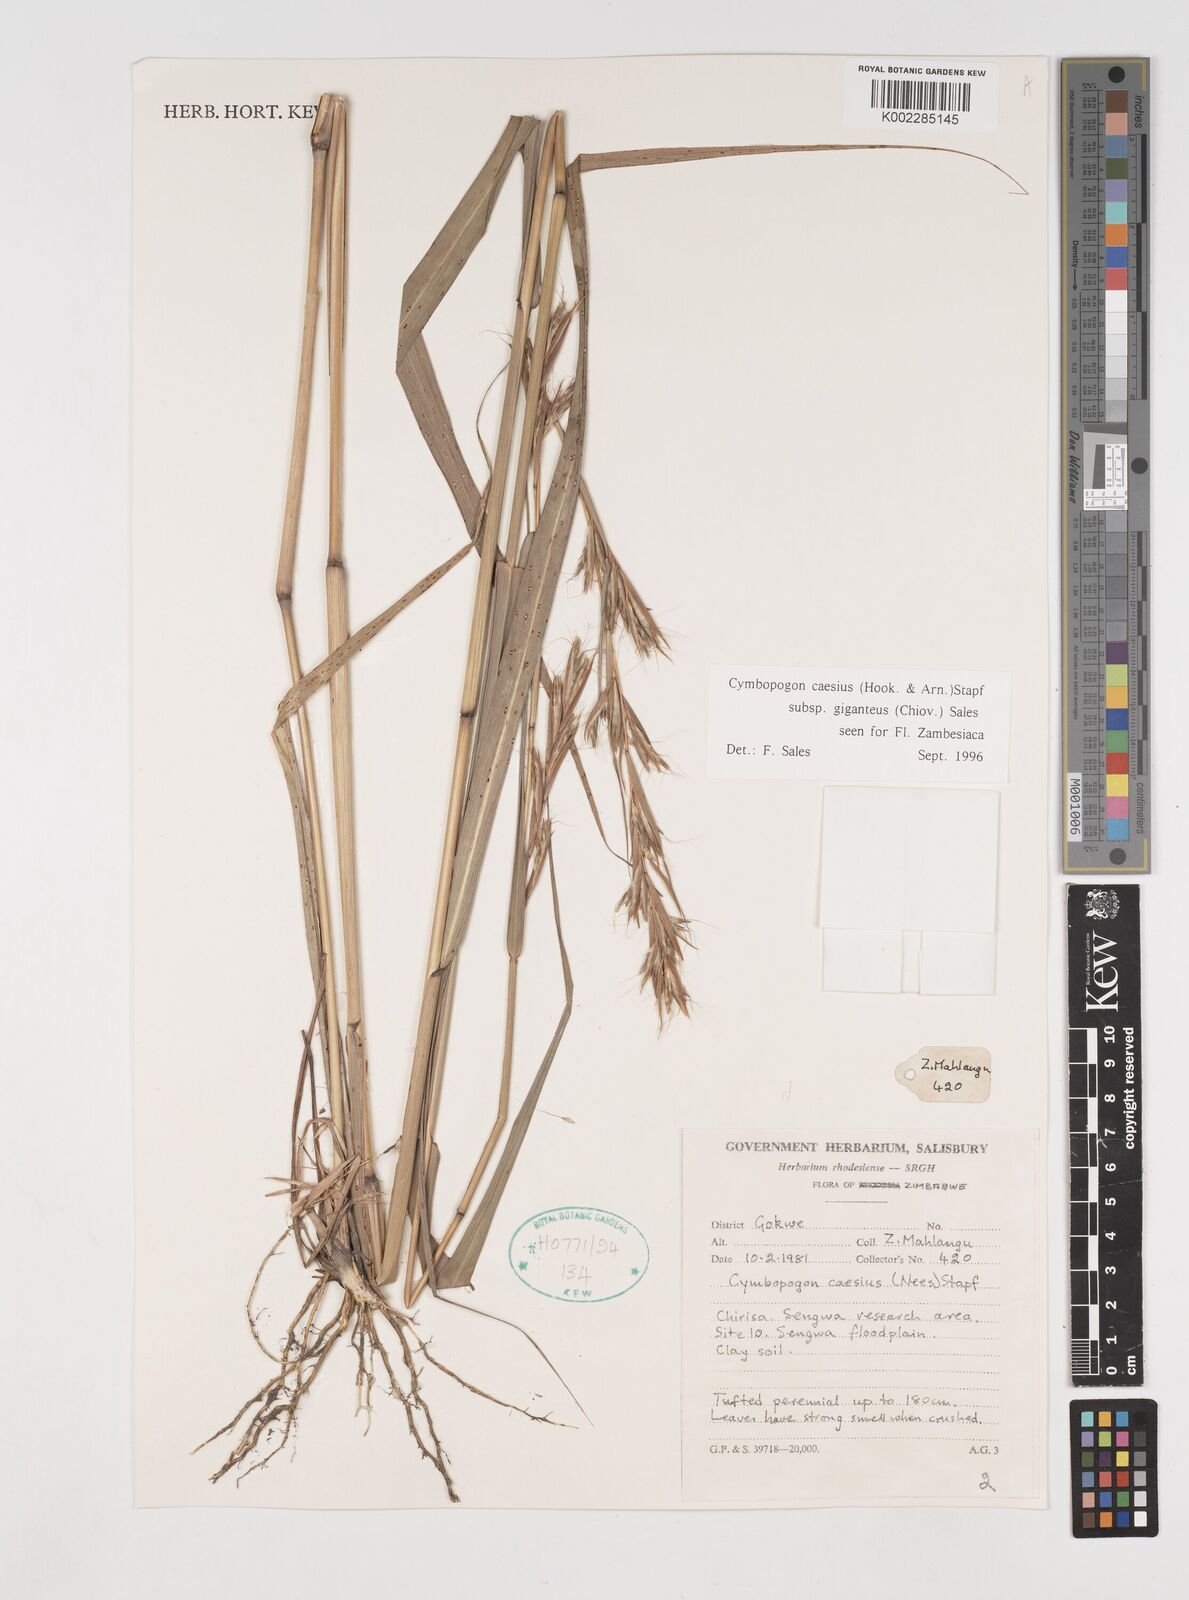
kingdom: Plantae
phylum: Tracheophyta
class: Liliopsida
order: Poales
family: Poaceae
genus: Cymbopogon
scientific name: Cymbopogon giganteus
